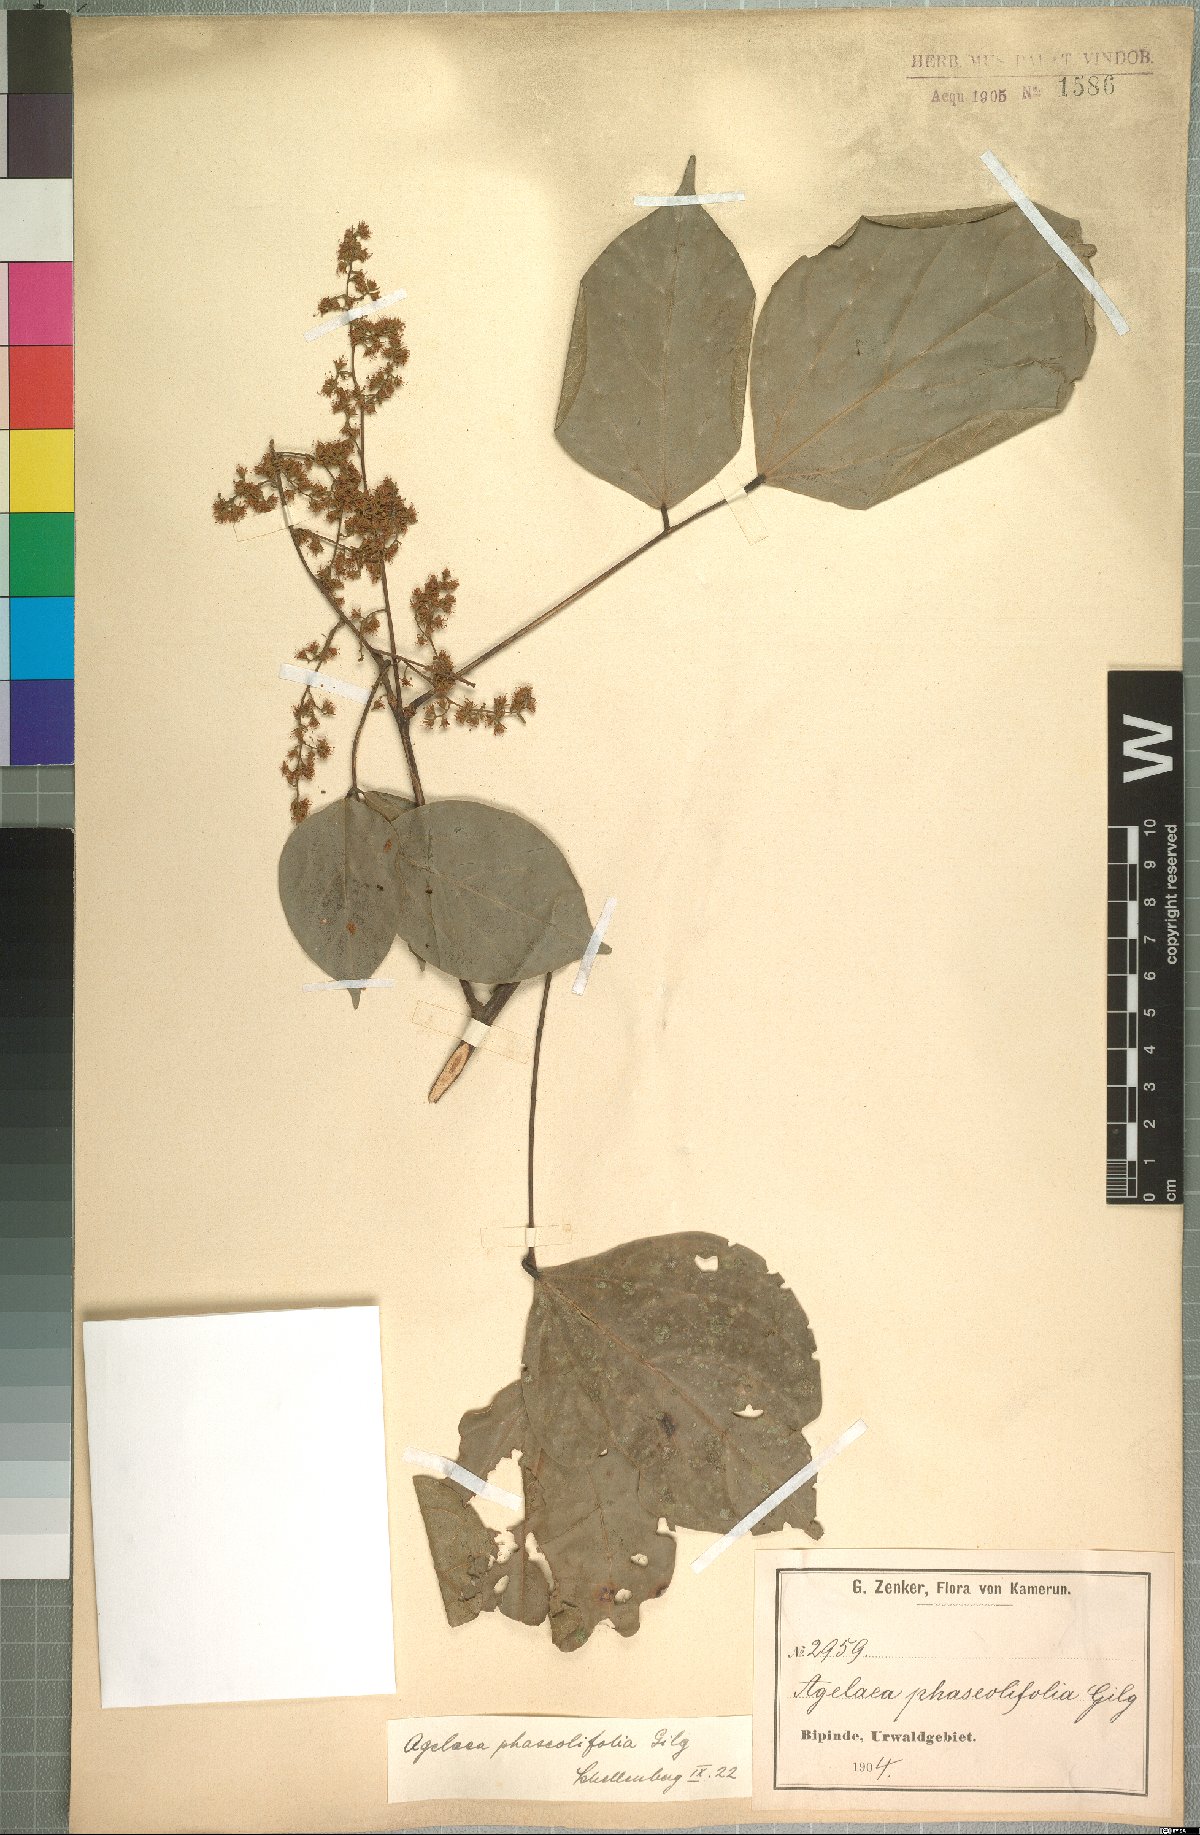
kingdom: Plantae
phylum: Tracheophyta
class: Magnoliopsida
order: Oxalidales
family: Connaraceae
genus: Agelaea
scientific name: Agelaea pentagyna
